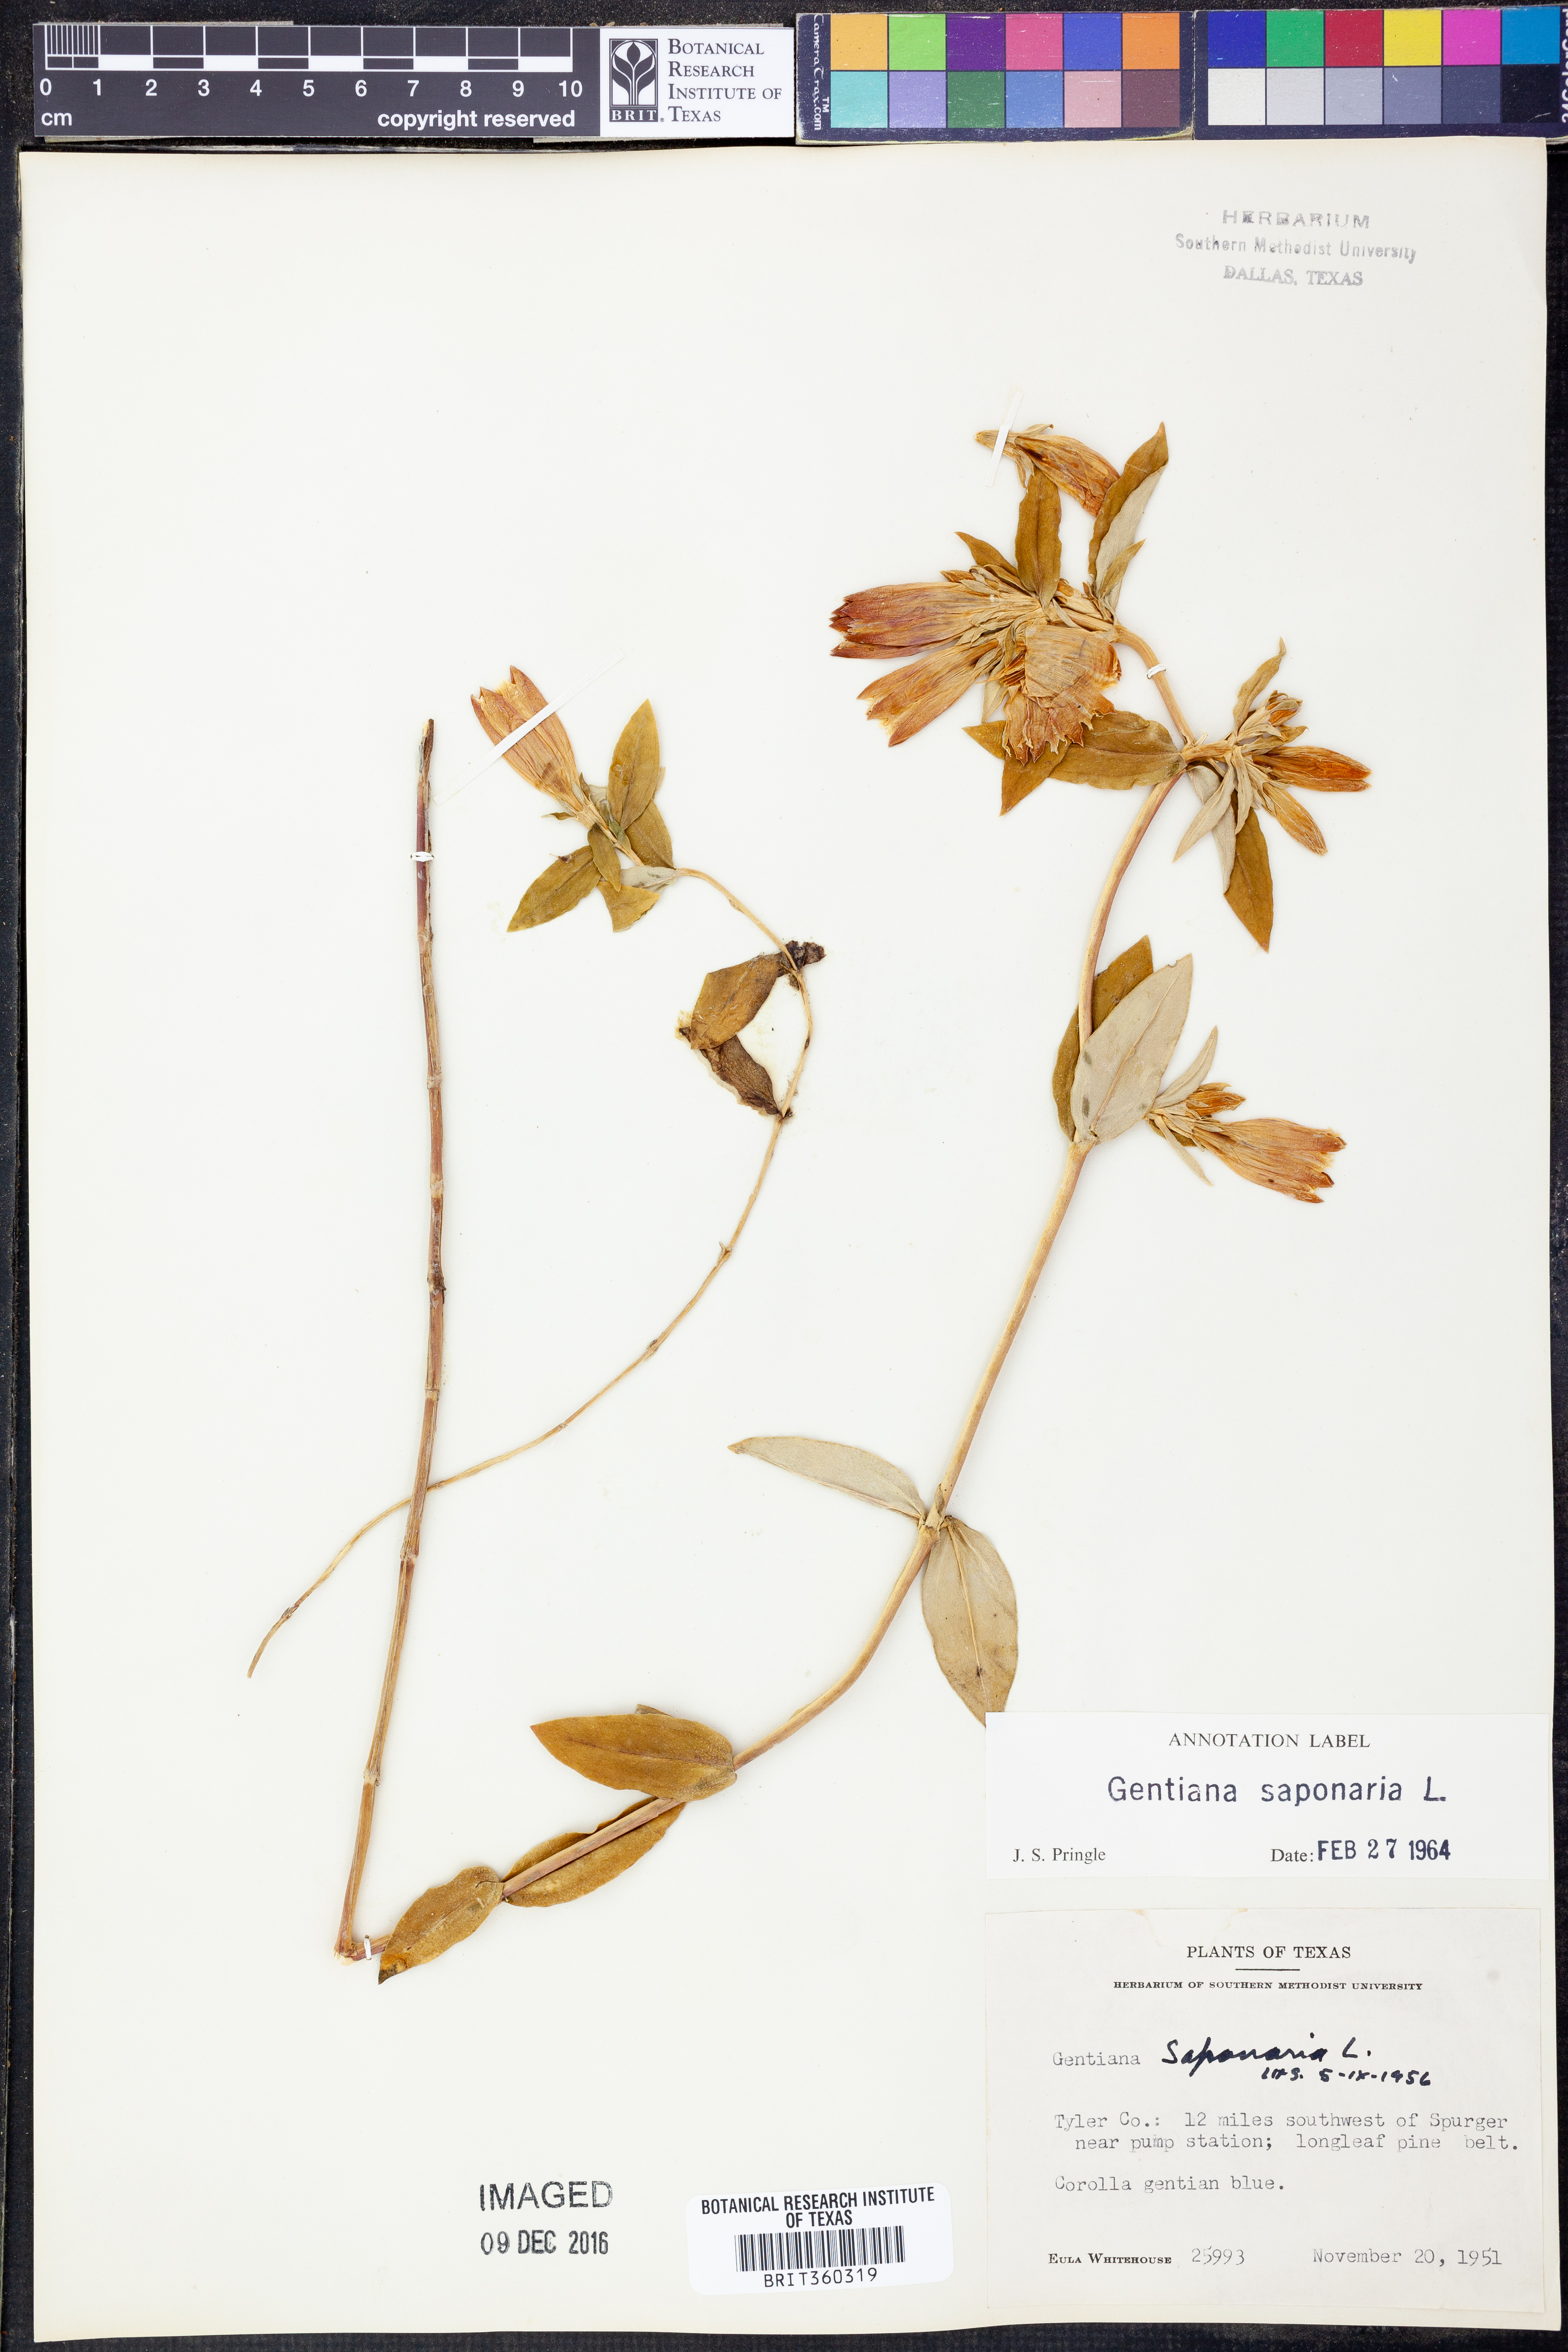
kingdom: Plantae
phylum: Tracheophyta
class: Magnoliopsida
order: Gentianales
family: Gentianaceae
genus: Gentiana
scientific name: Gentiana saponaria
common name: Soapwort gentian
